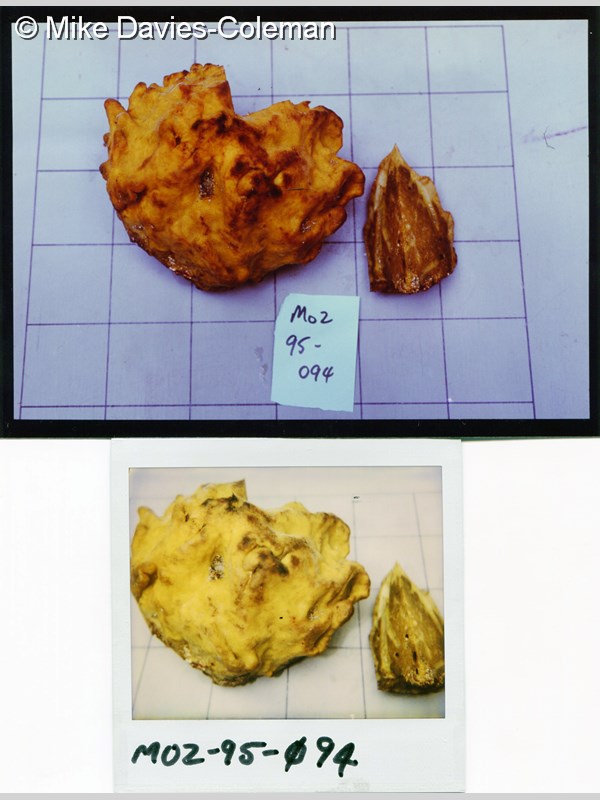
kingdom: Animalia
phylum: Porifera
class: Demospongiae
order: Poecilosclerida
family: Latrunculiidae
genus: Latrunculia
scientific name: Latrunculia
